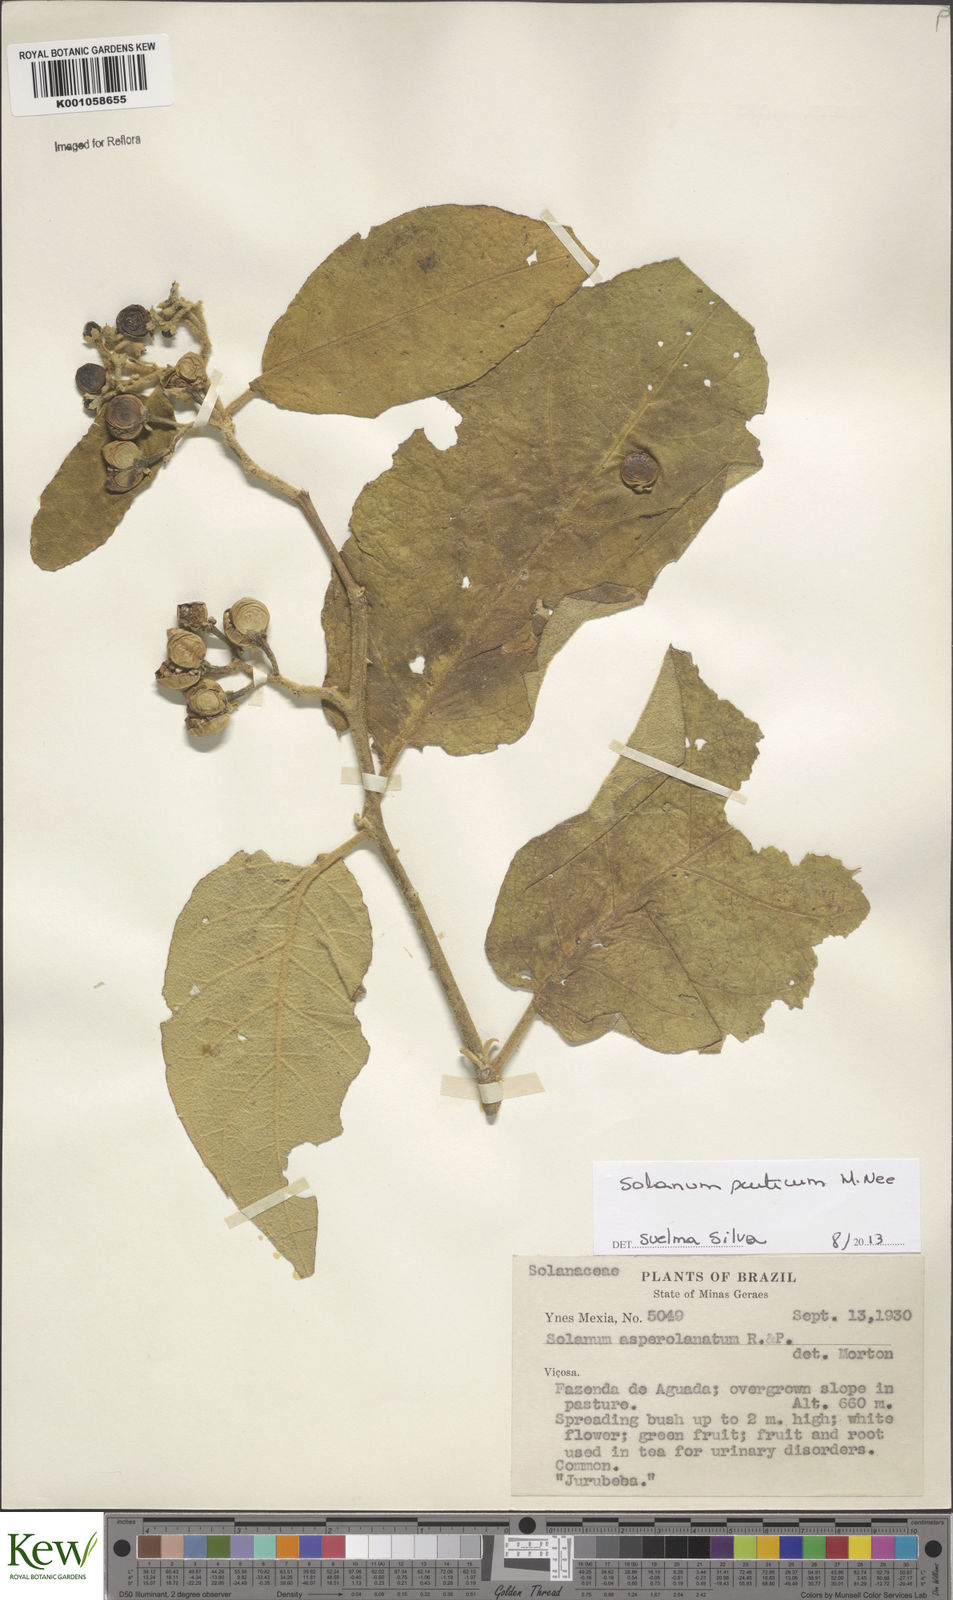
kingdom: Plantae
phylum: Tracheophyta
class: Magnoliopsida
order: Solanales
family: Solanaceae
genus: Solanum
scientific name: Solanum scuticum
